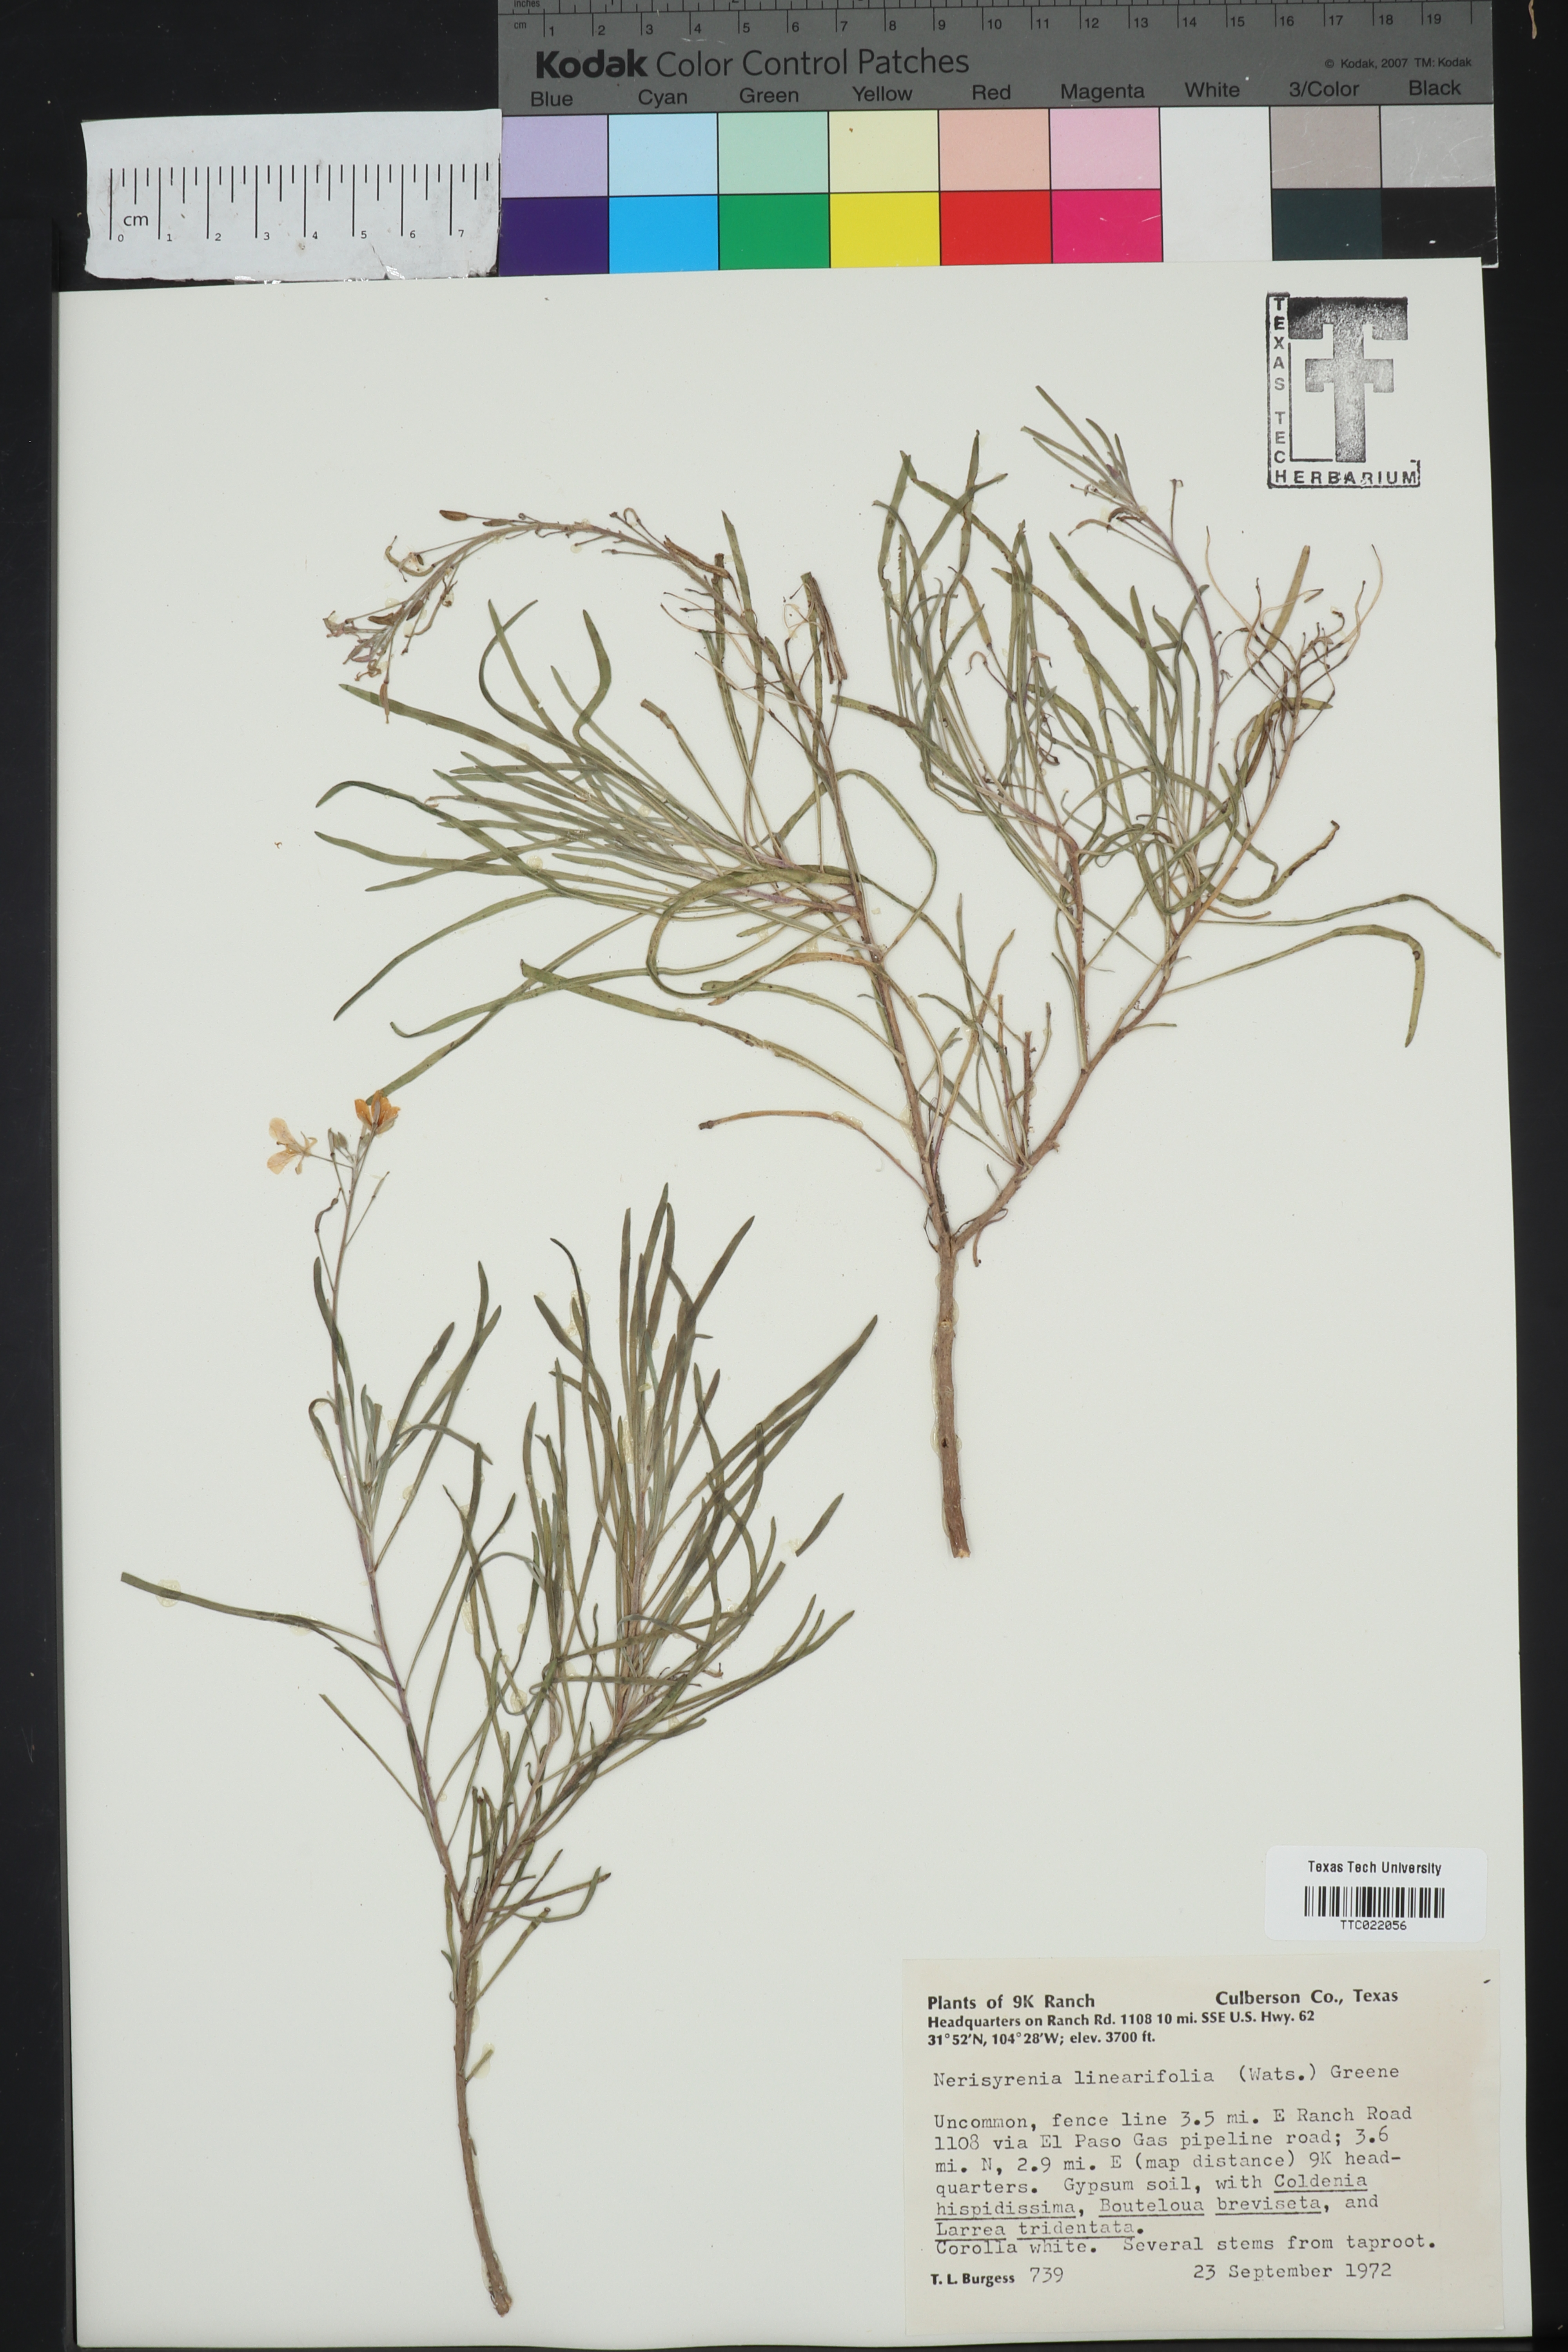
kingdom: Plantae
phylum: Tracheophyta
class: Magnoliopsida
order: Brassicales
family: Brassicaceae
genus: Nerisyrenia
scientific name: Nerisyrenia linearifolia
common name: White sands fan mustard
